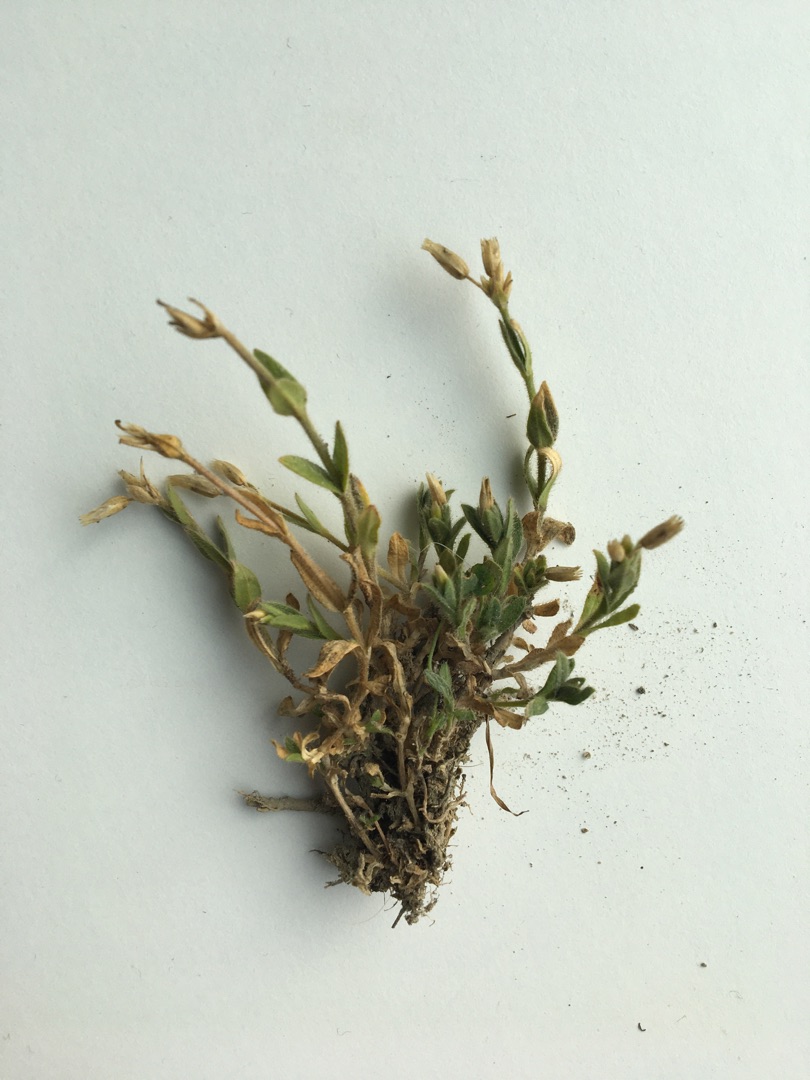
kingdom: Plantae
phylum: Tracheophyta
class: Magnoliopsida
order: Caryophyllales
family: Caryophyllaceae
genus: Cerastium
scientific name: Cerastium holosteoides
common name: Almindelig hønsetarm (varietet)
